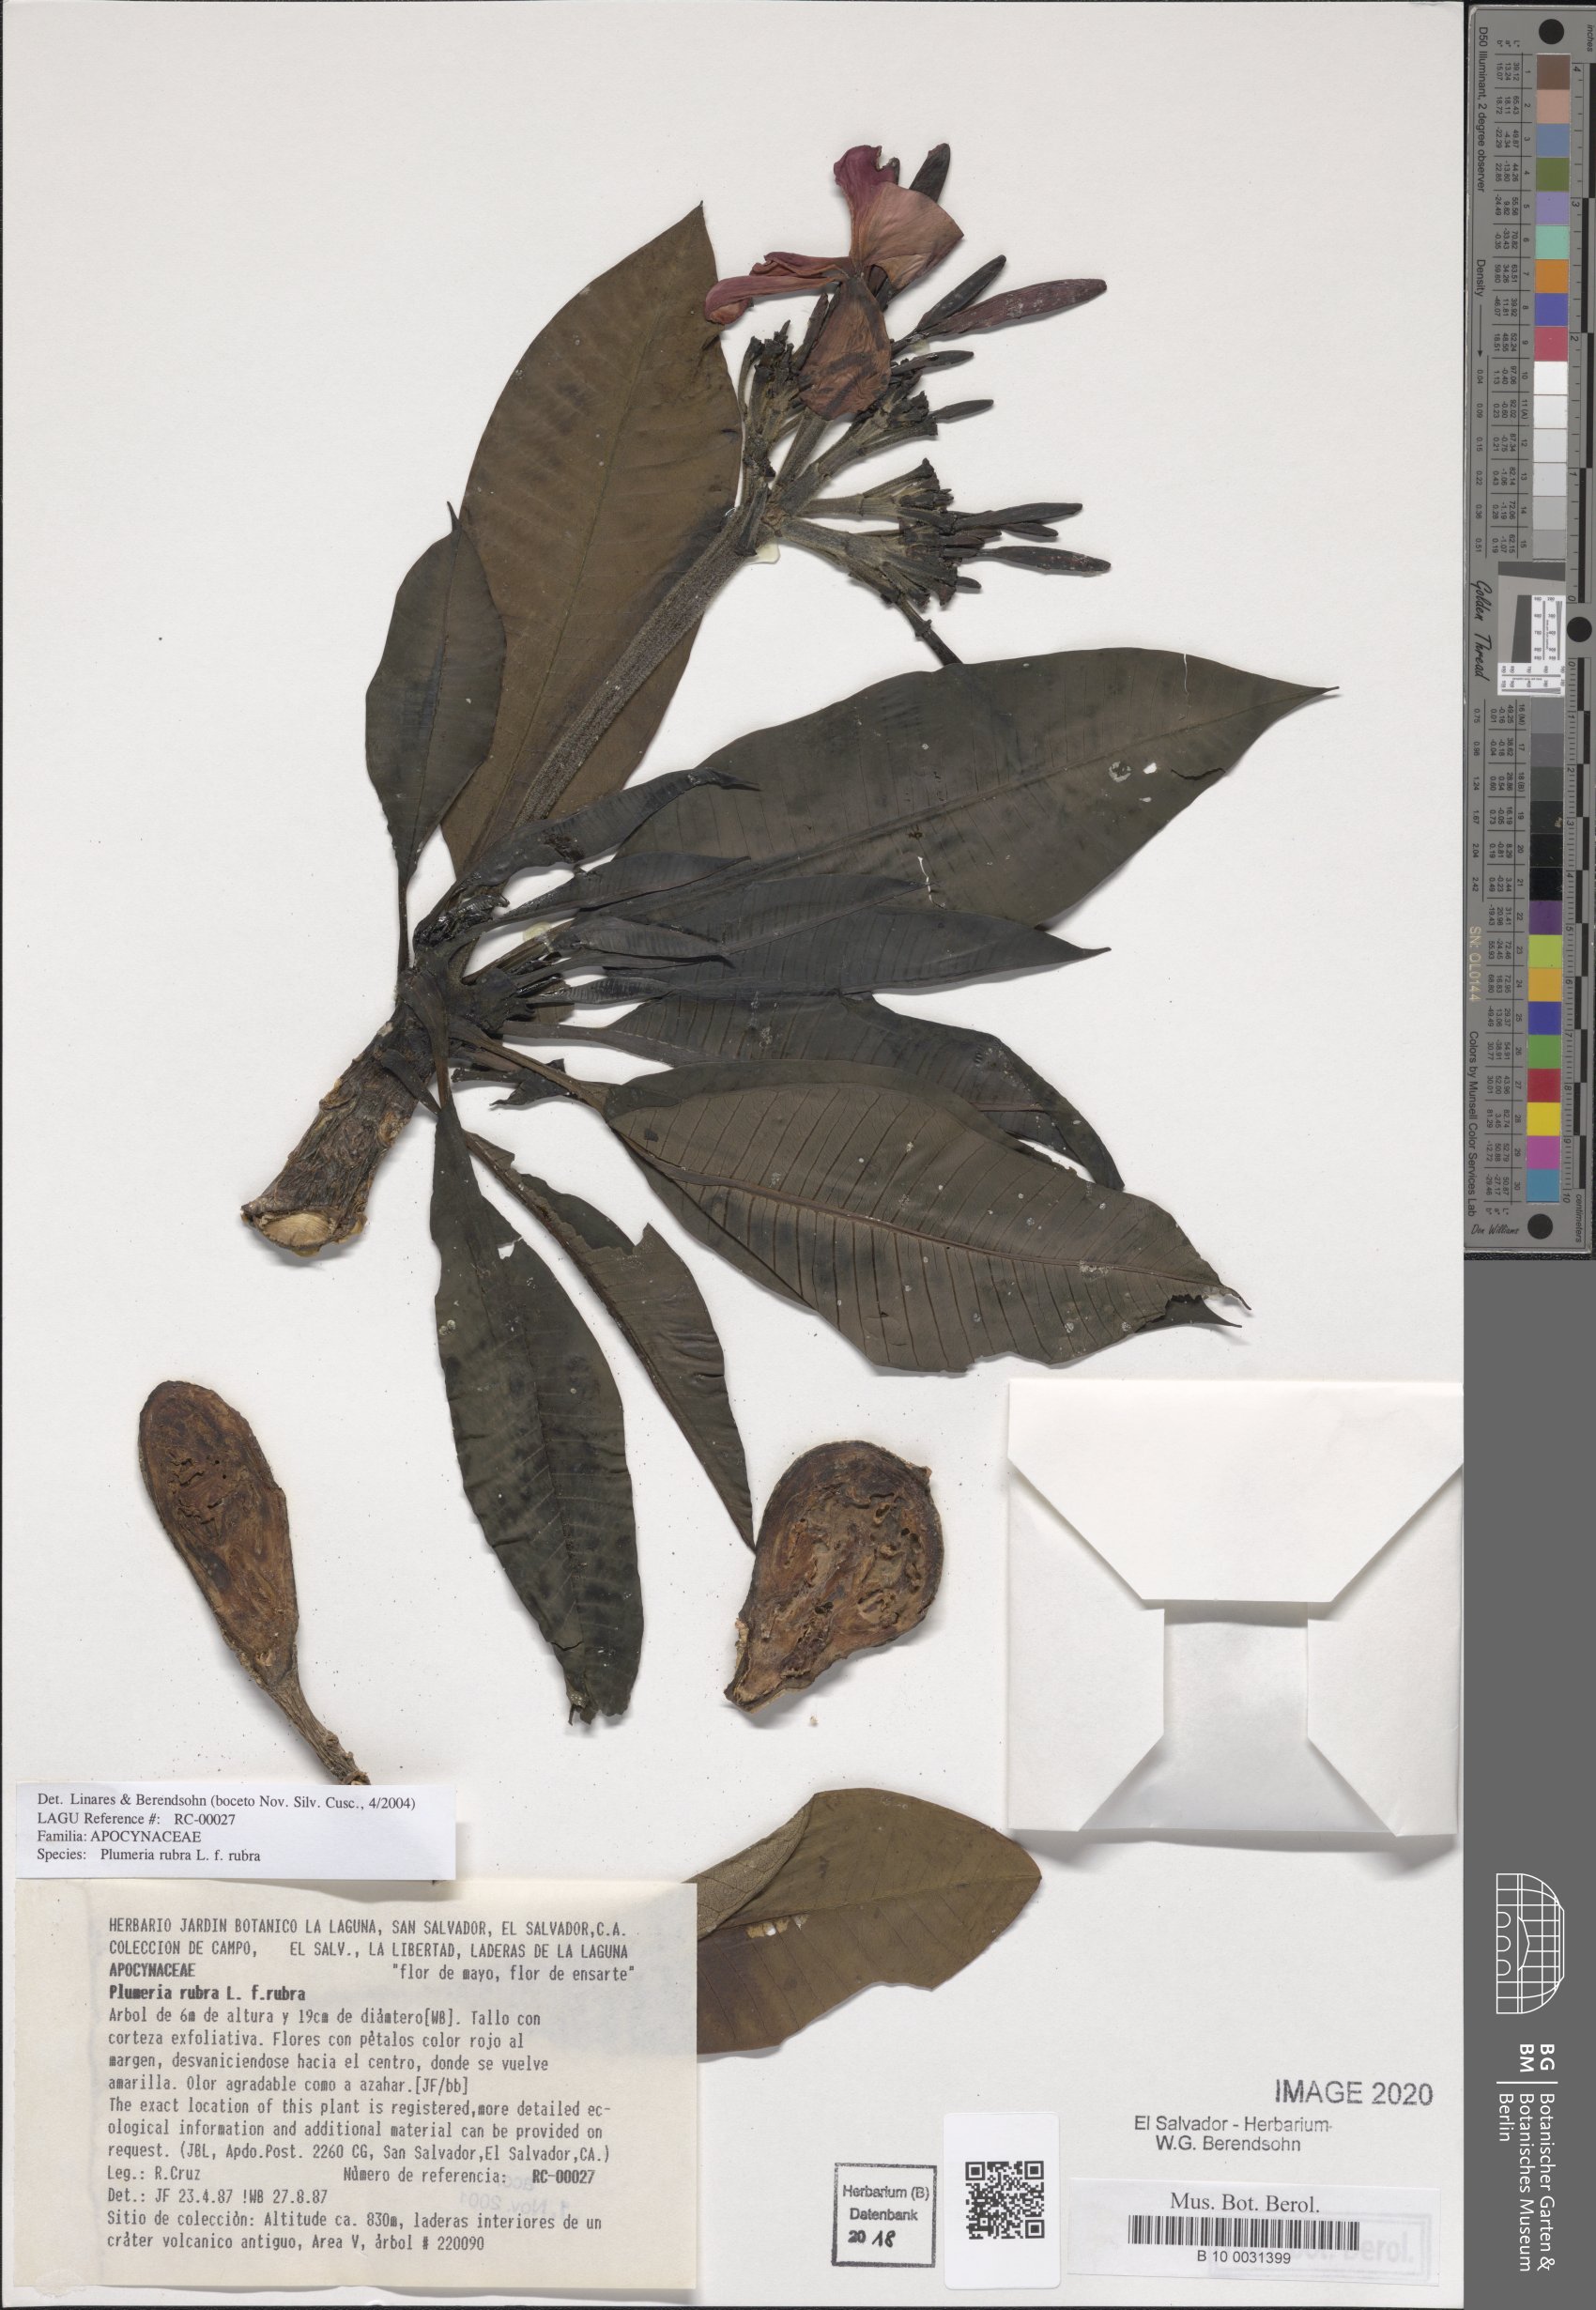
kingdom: Plantae
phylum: Tracheophyta
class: Magnoliopsida
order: Gentianales
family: Apocynaceae
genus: Plumeria
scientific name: Plumeria rubra
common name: Pagoda-tree
